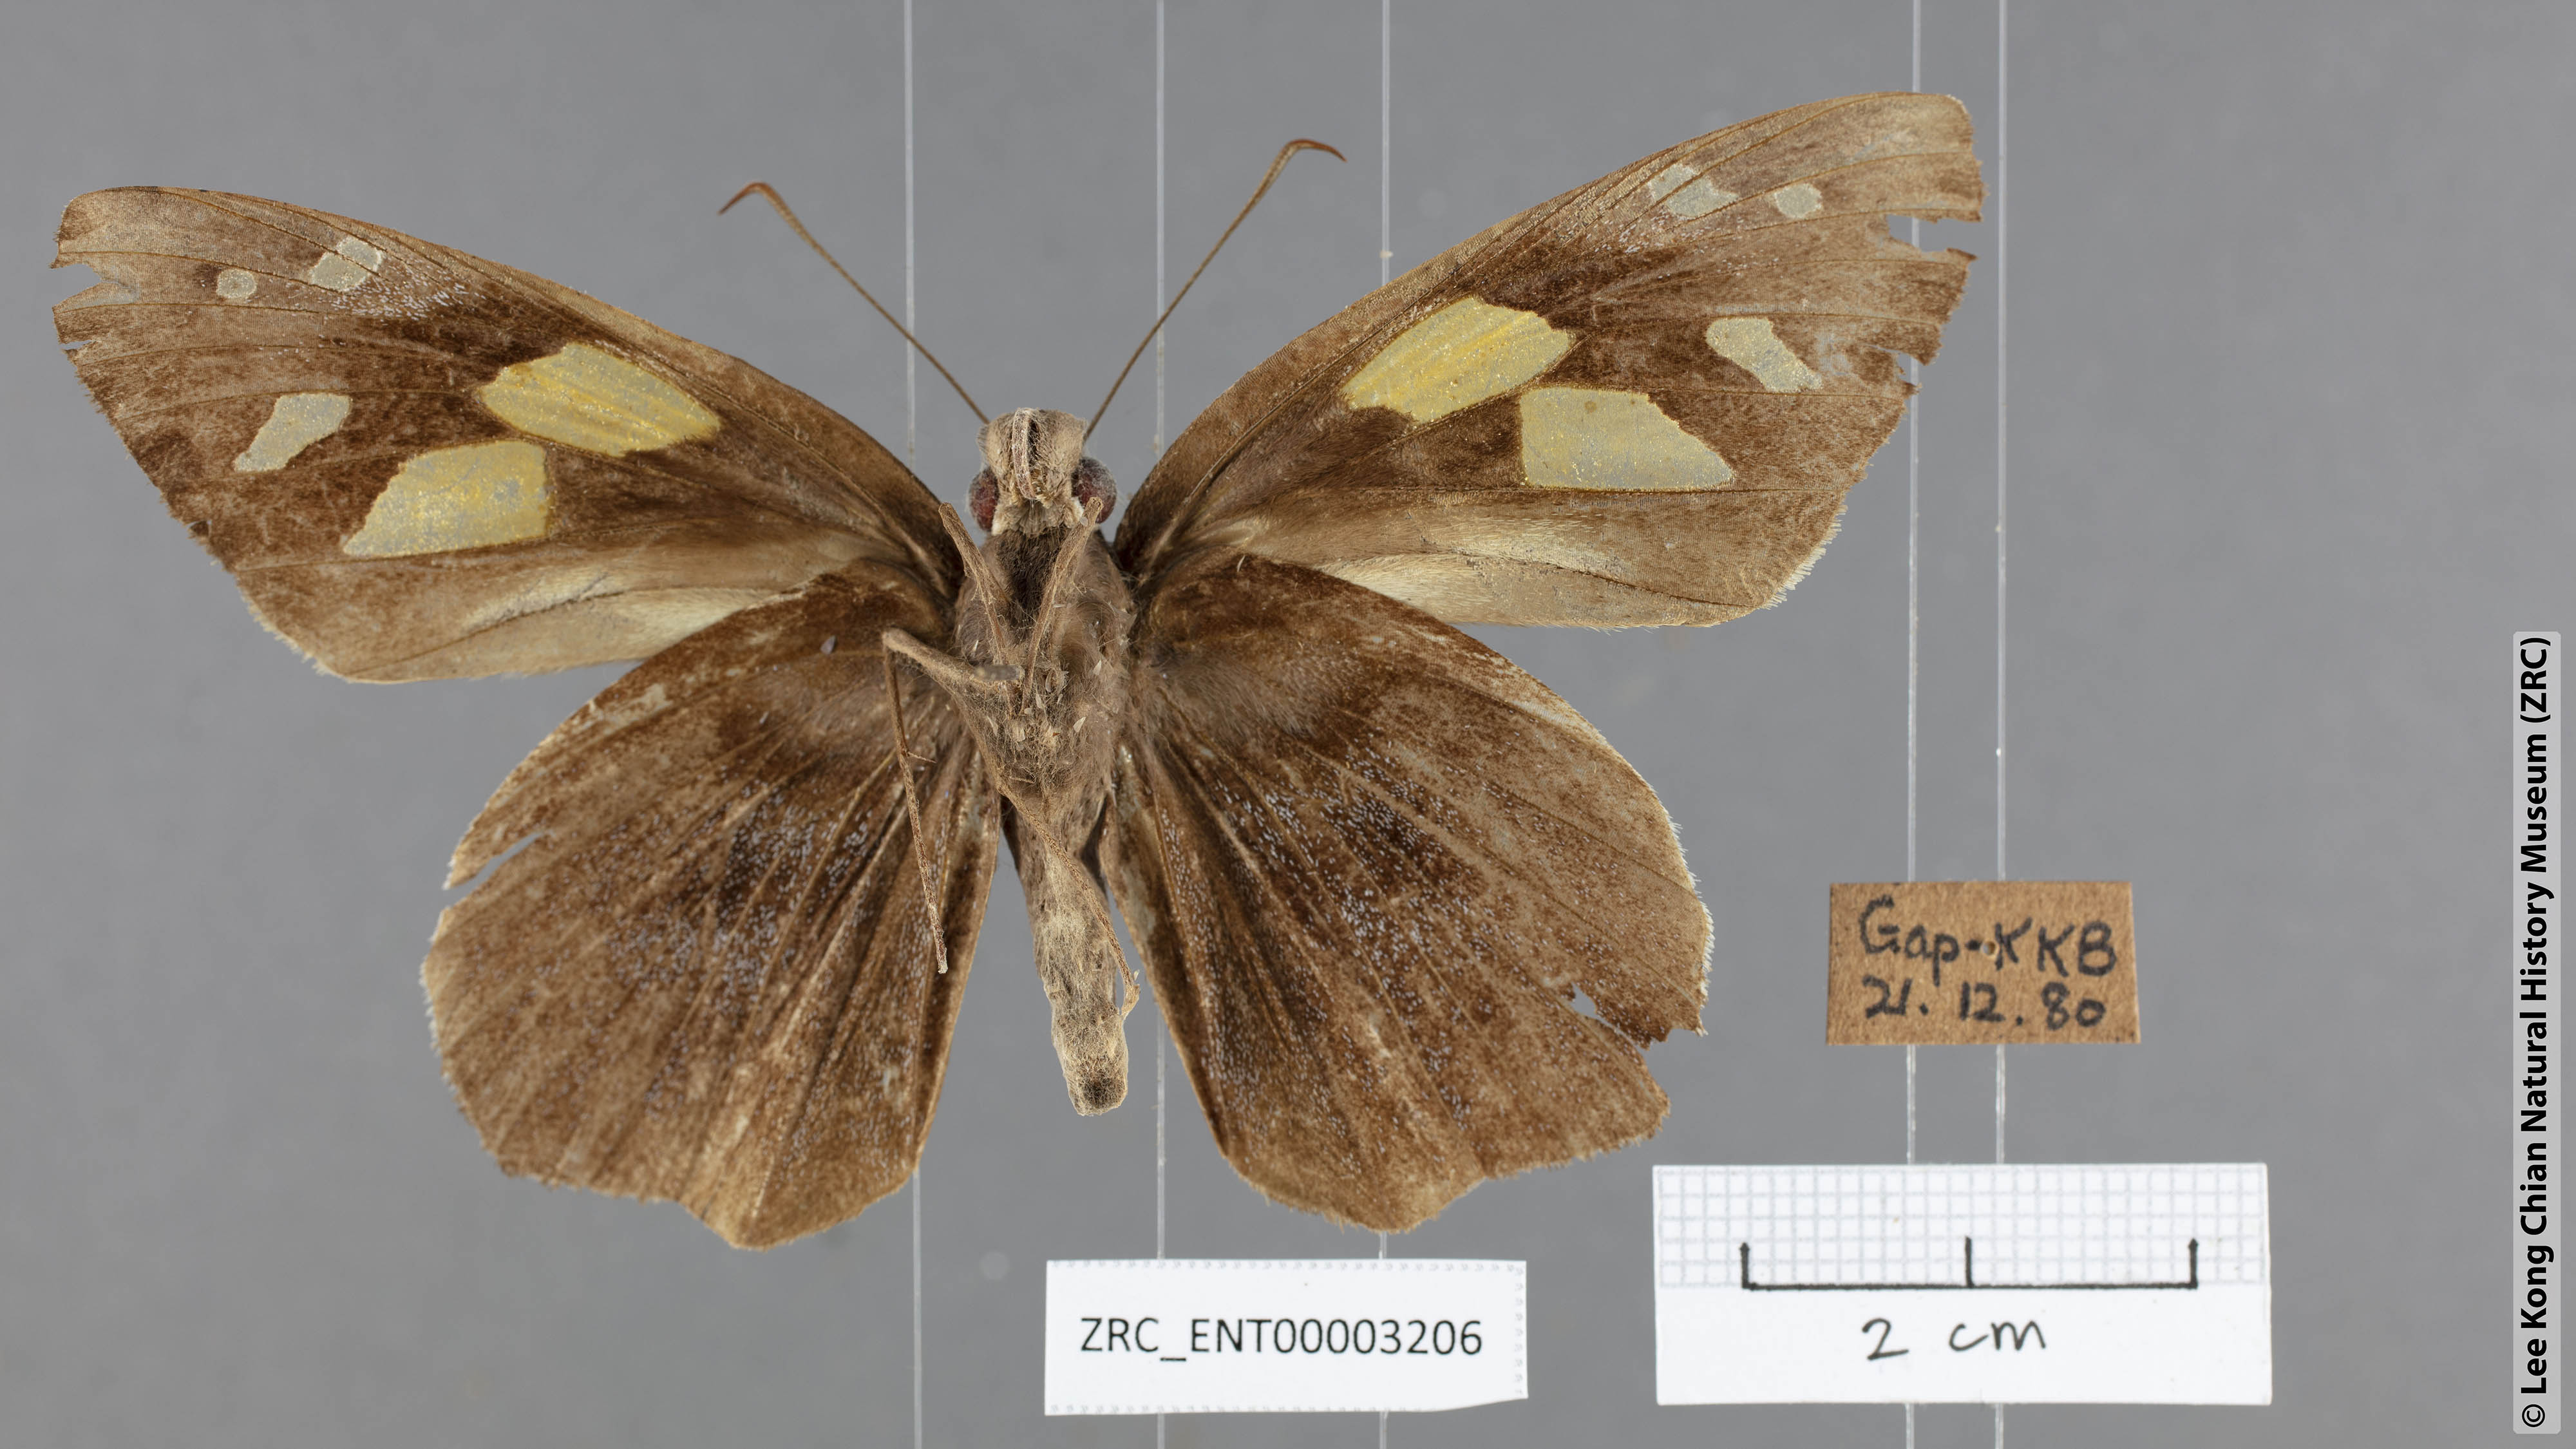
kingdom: Animalia
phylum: Arthropoda
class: Insecta
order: Lepidoptera
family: Hesperiidae
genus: Gangara
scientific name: Gangara thyrsis
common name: Giant redeye
